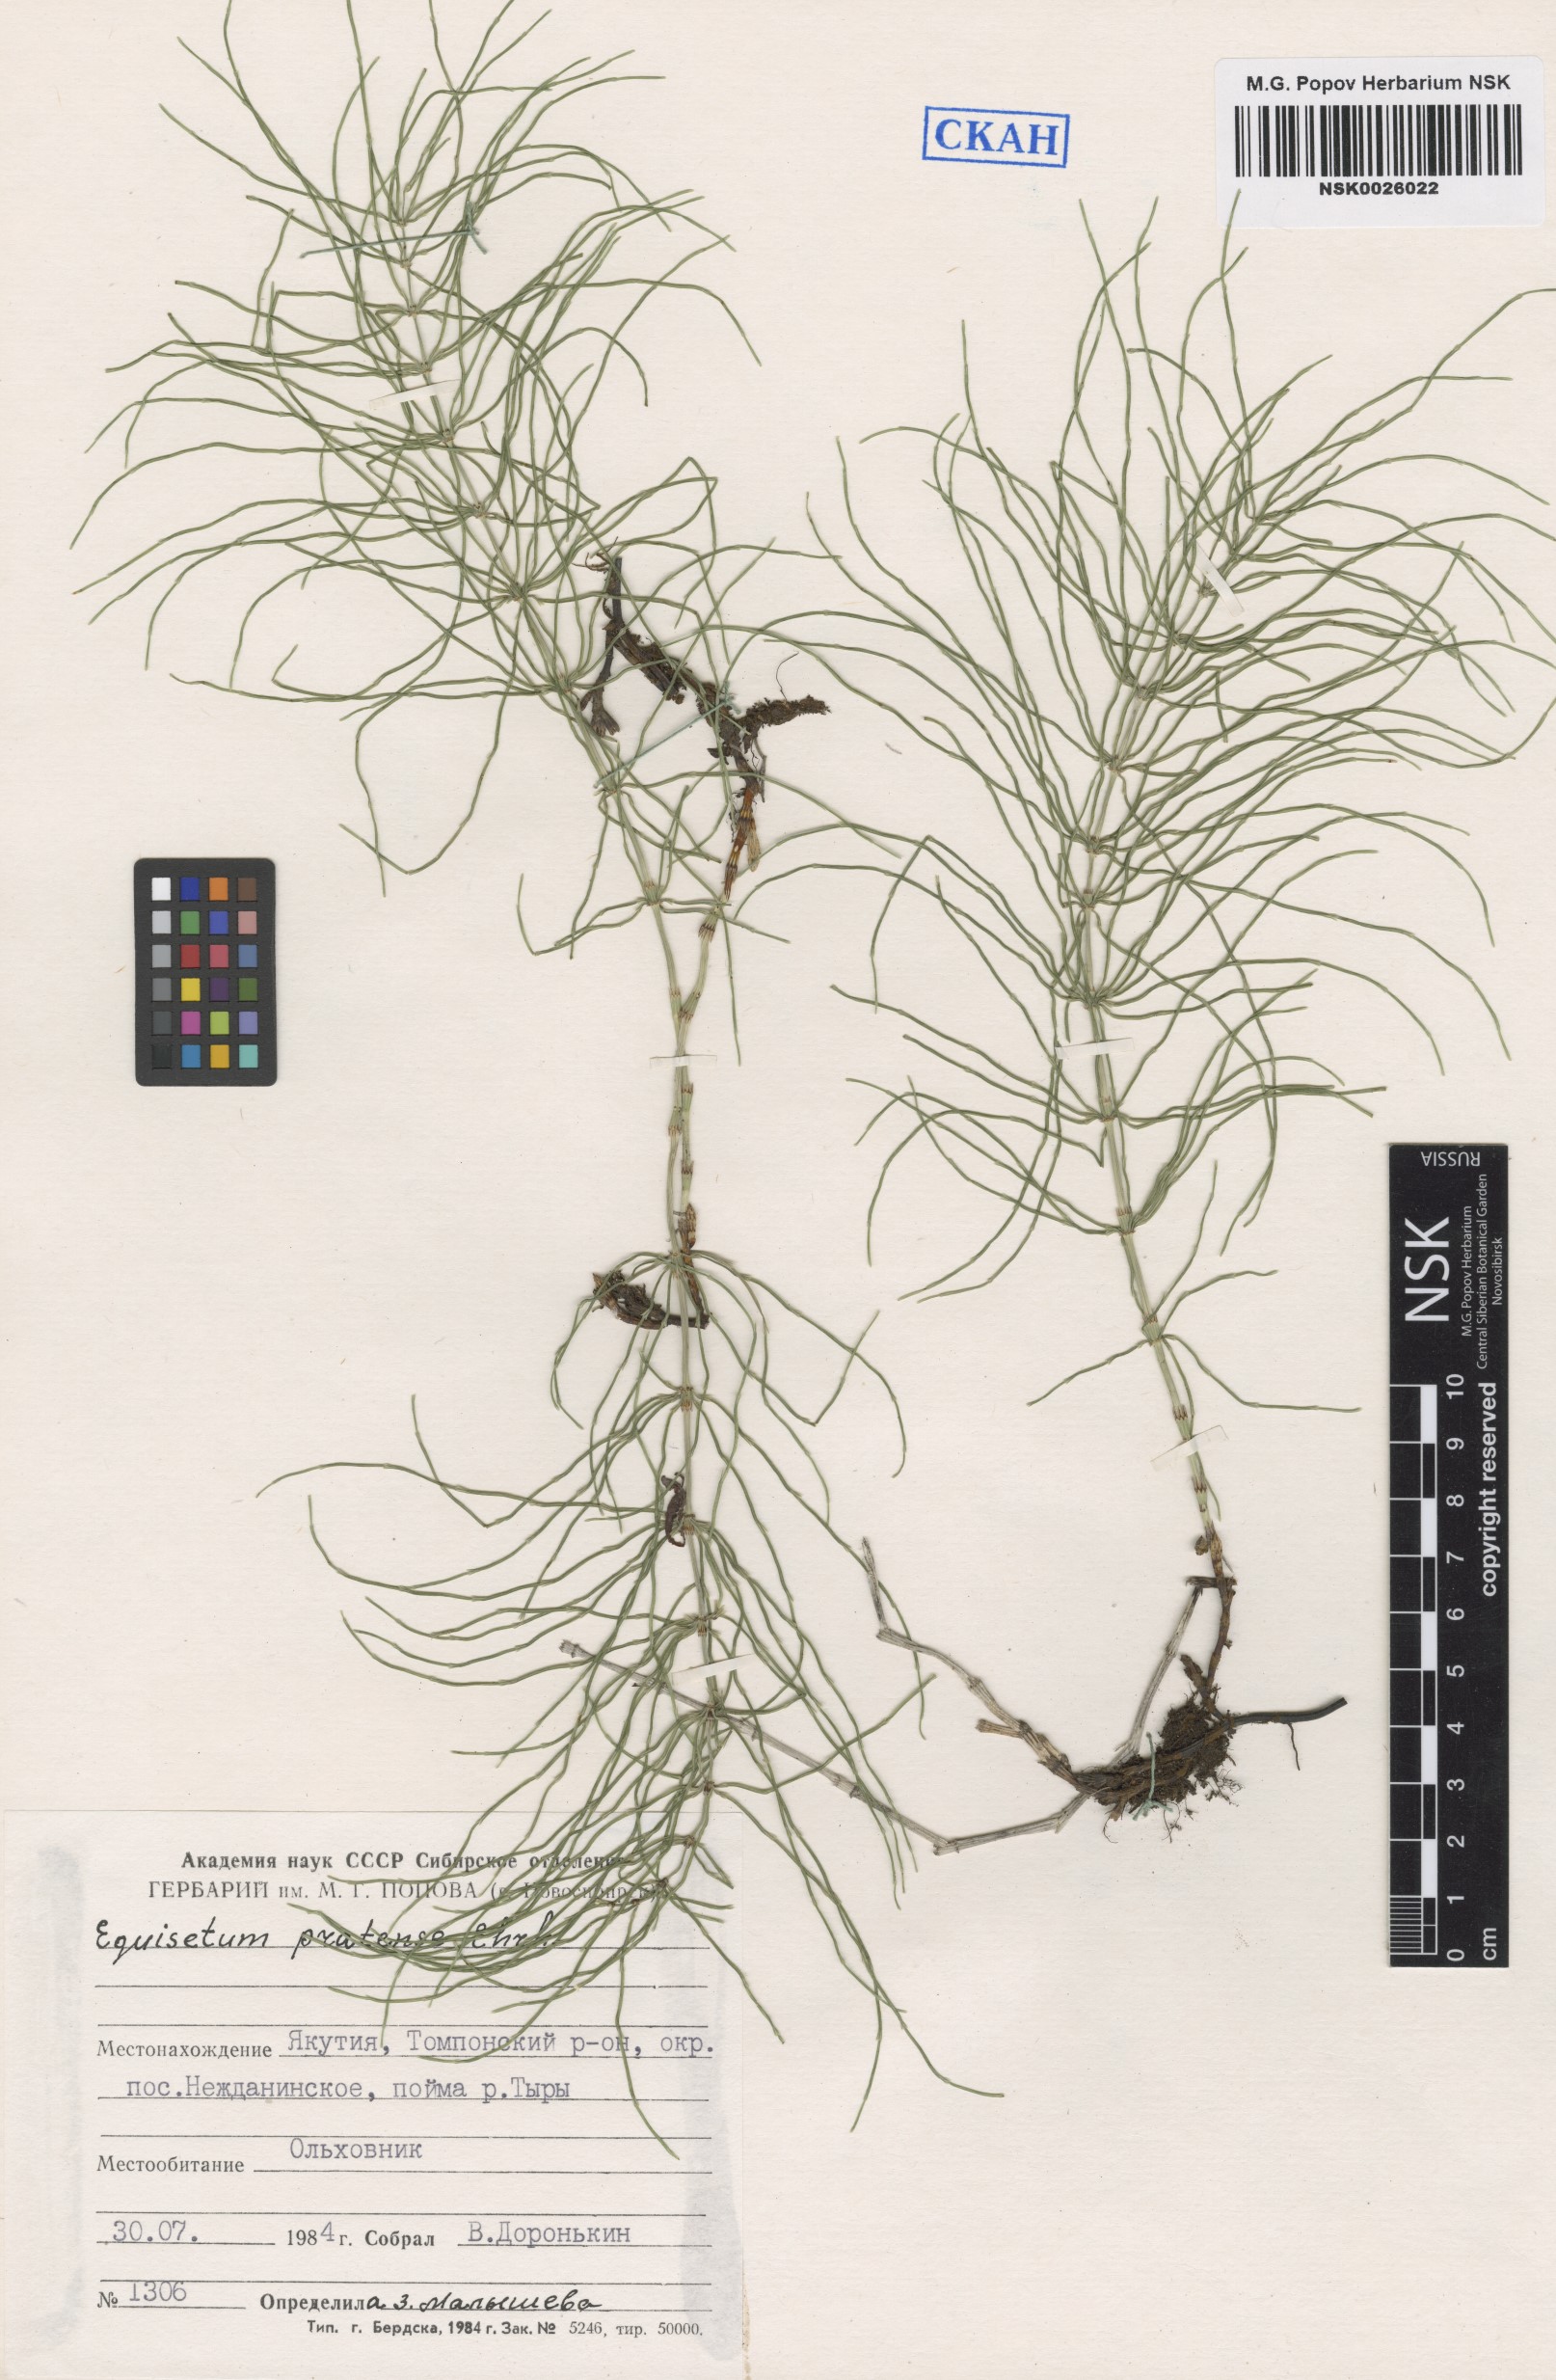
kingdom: Plantae
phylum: Tracheophyta
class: Polypodiopsida
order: Equisetales
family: Equisetaceae
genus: Equisetum
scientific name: Equisetum pratense
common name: Meadow horsetail
